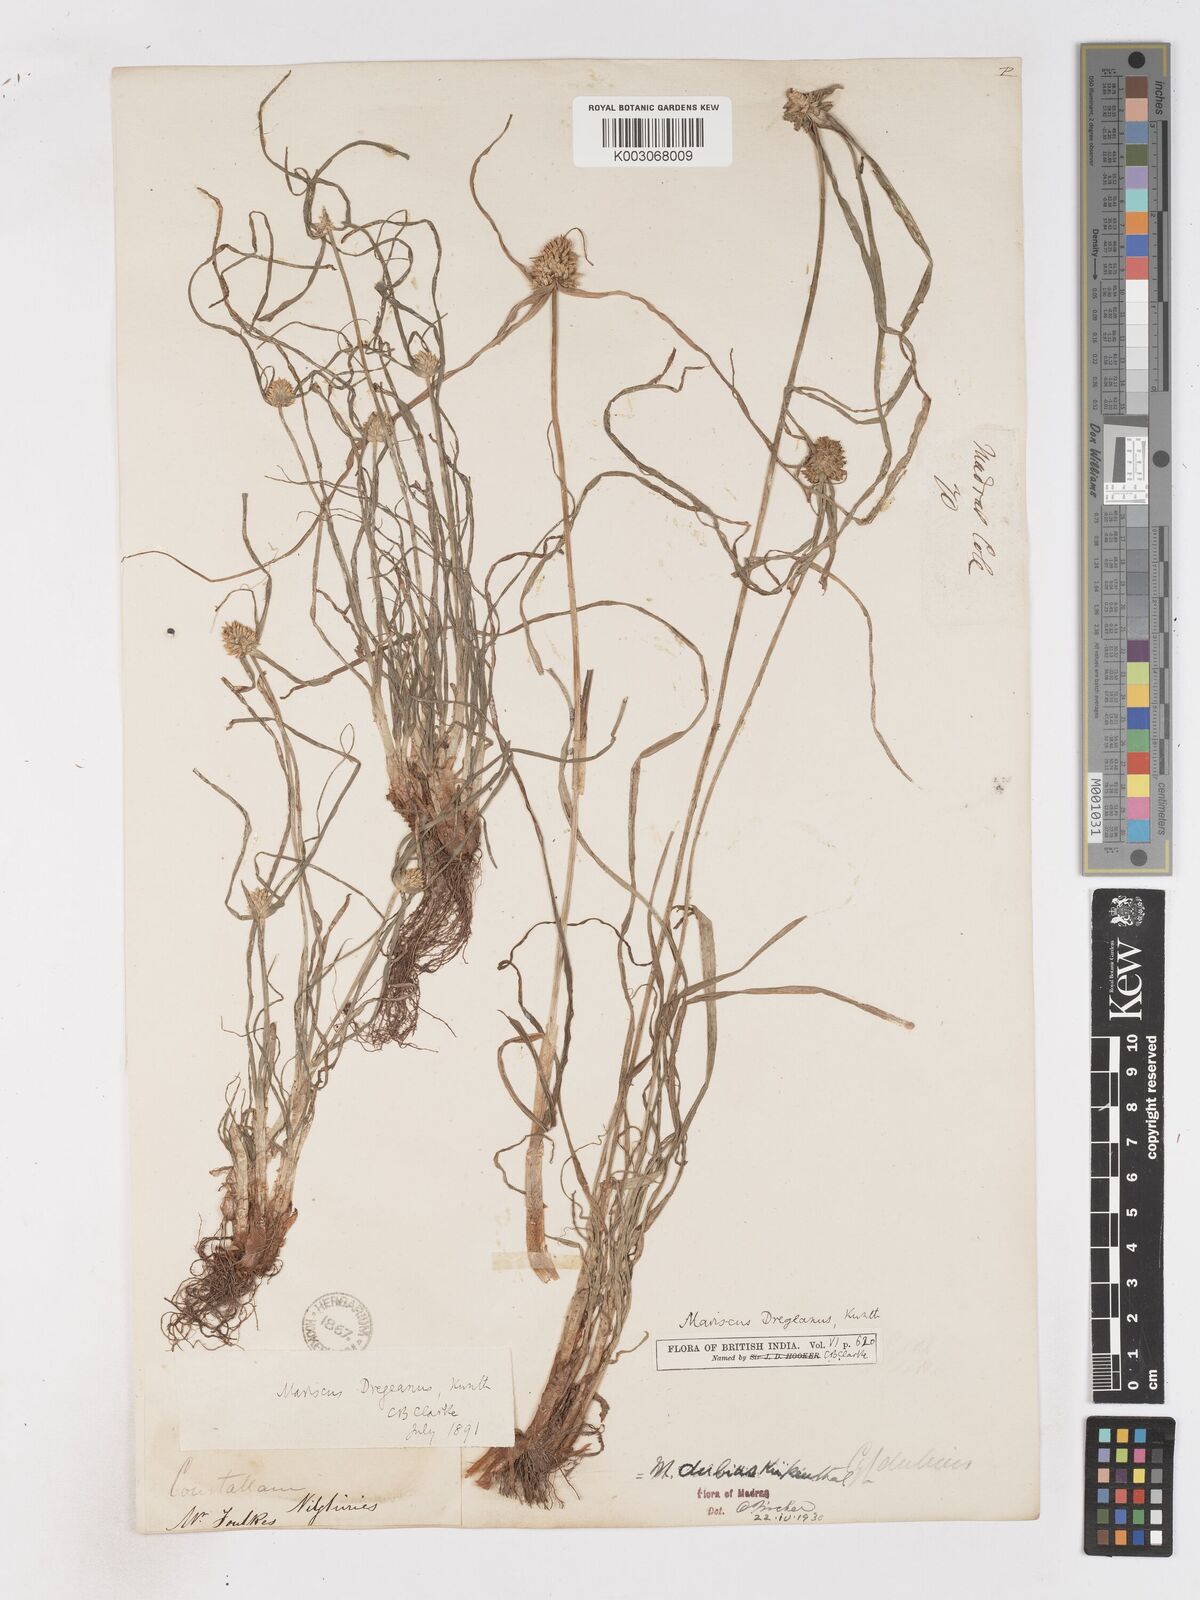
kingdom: Plantae
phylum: Tracheophyta
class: Liliopsida
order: Poales
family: Cyperaceae
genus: Cyperus
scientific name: Cyperus dubius
